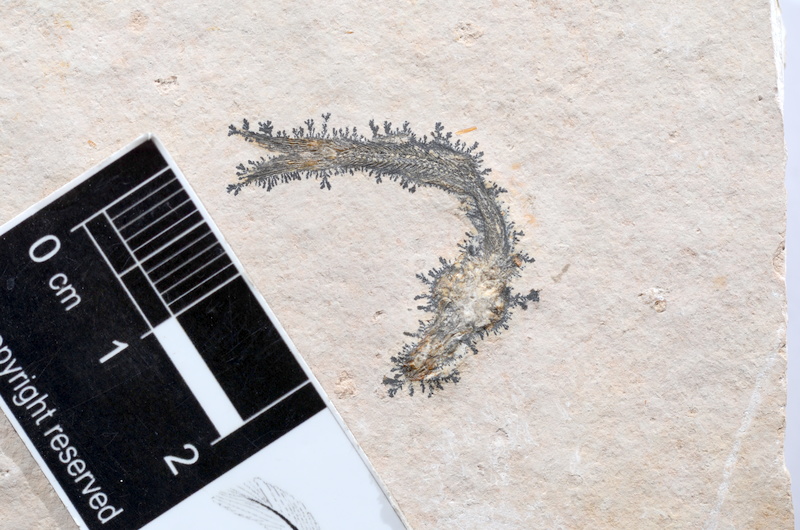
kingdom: Animalia
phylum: Chordata
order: Salmoniformes
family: Orthogonikleithridae
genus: Leptolepides
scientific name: Leptolepides sprattiformis
